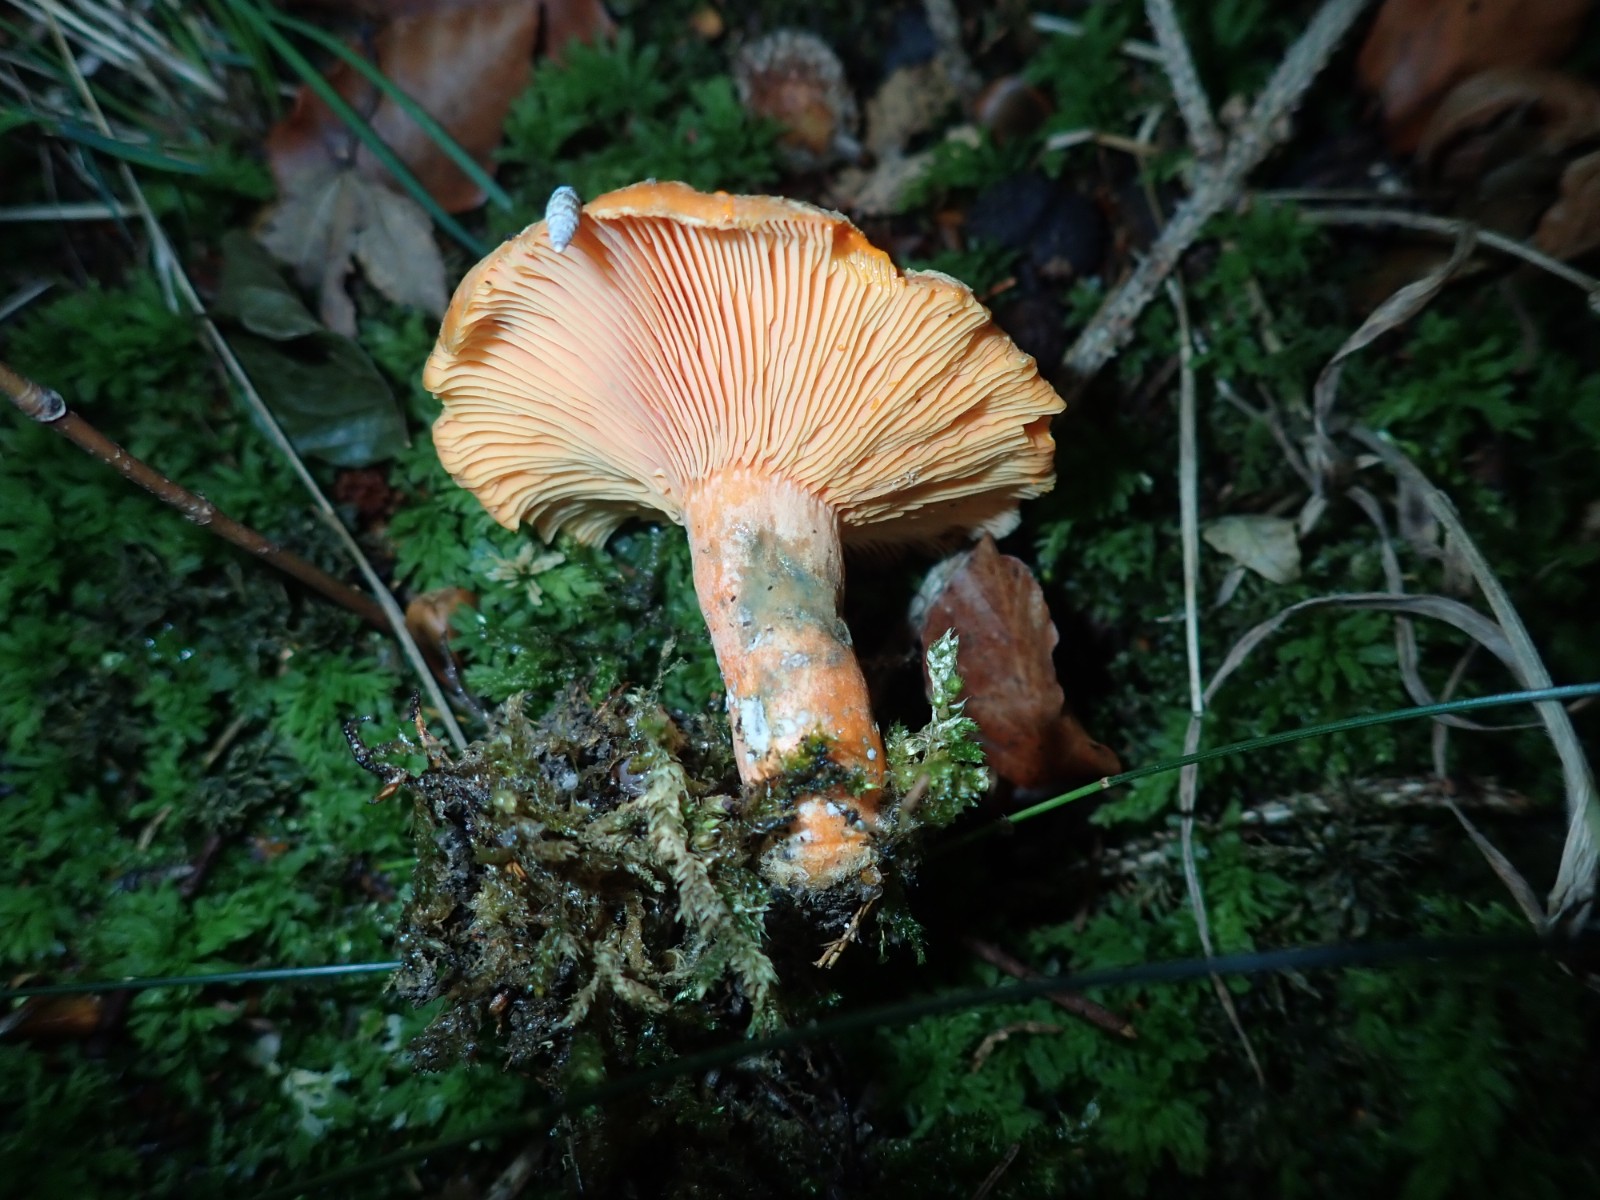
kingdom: Fungi
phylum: Basidiomycota
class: Agaricomycetes
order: Russulales
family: Russulaceae
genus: Lactarius
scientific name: Lactarius deterrimus
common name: gran-mælkehat
